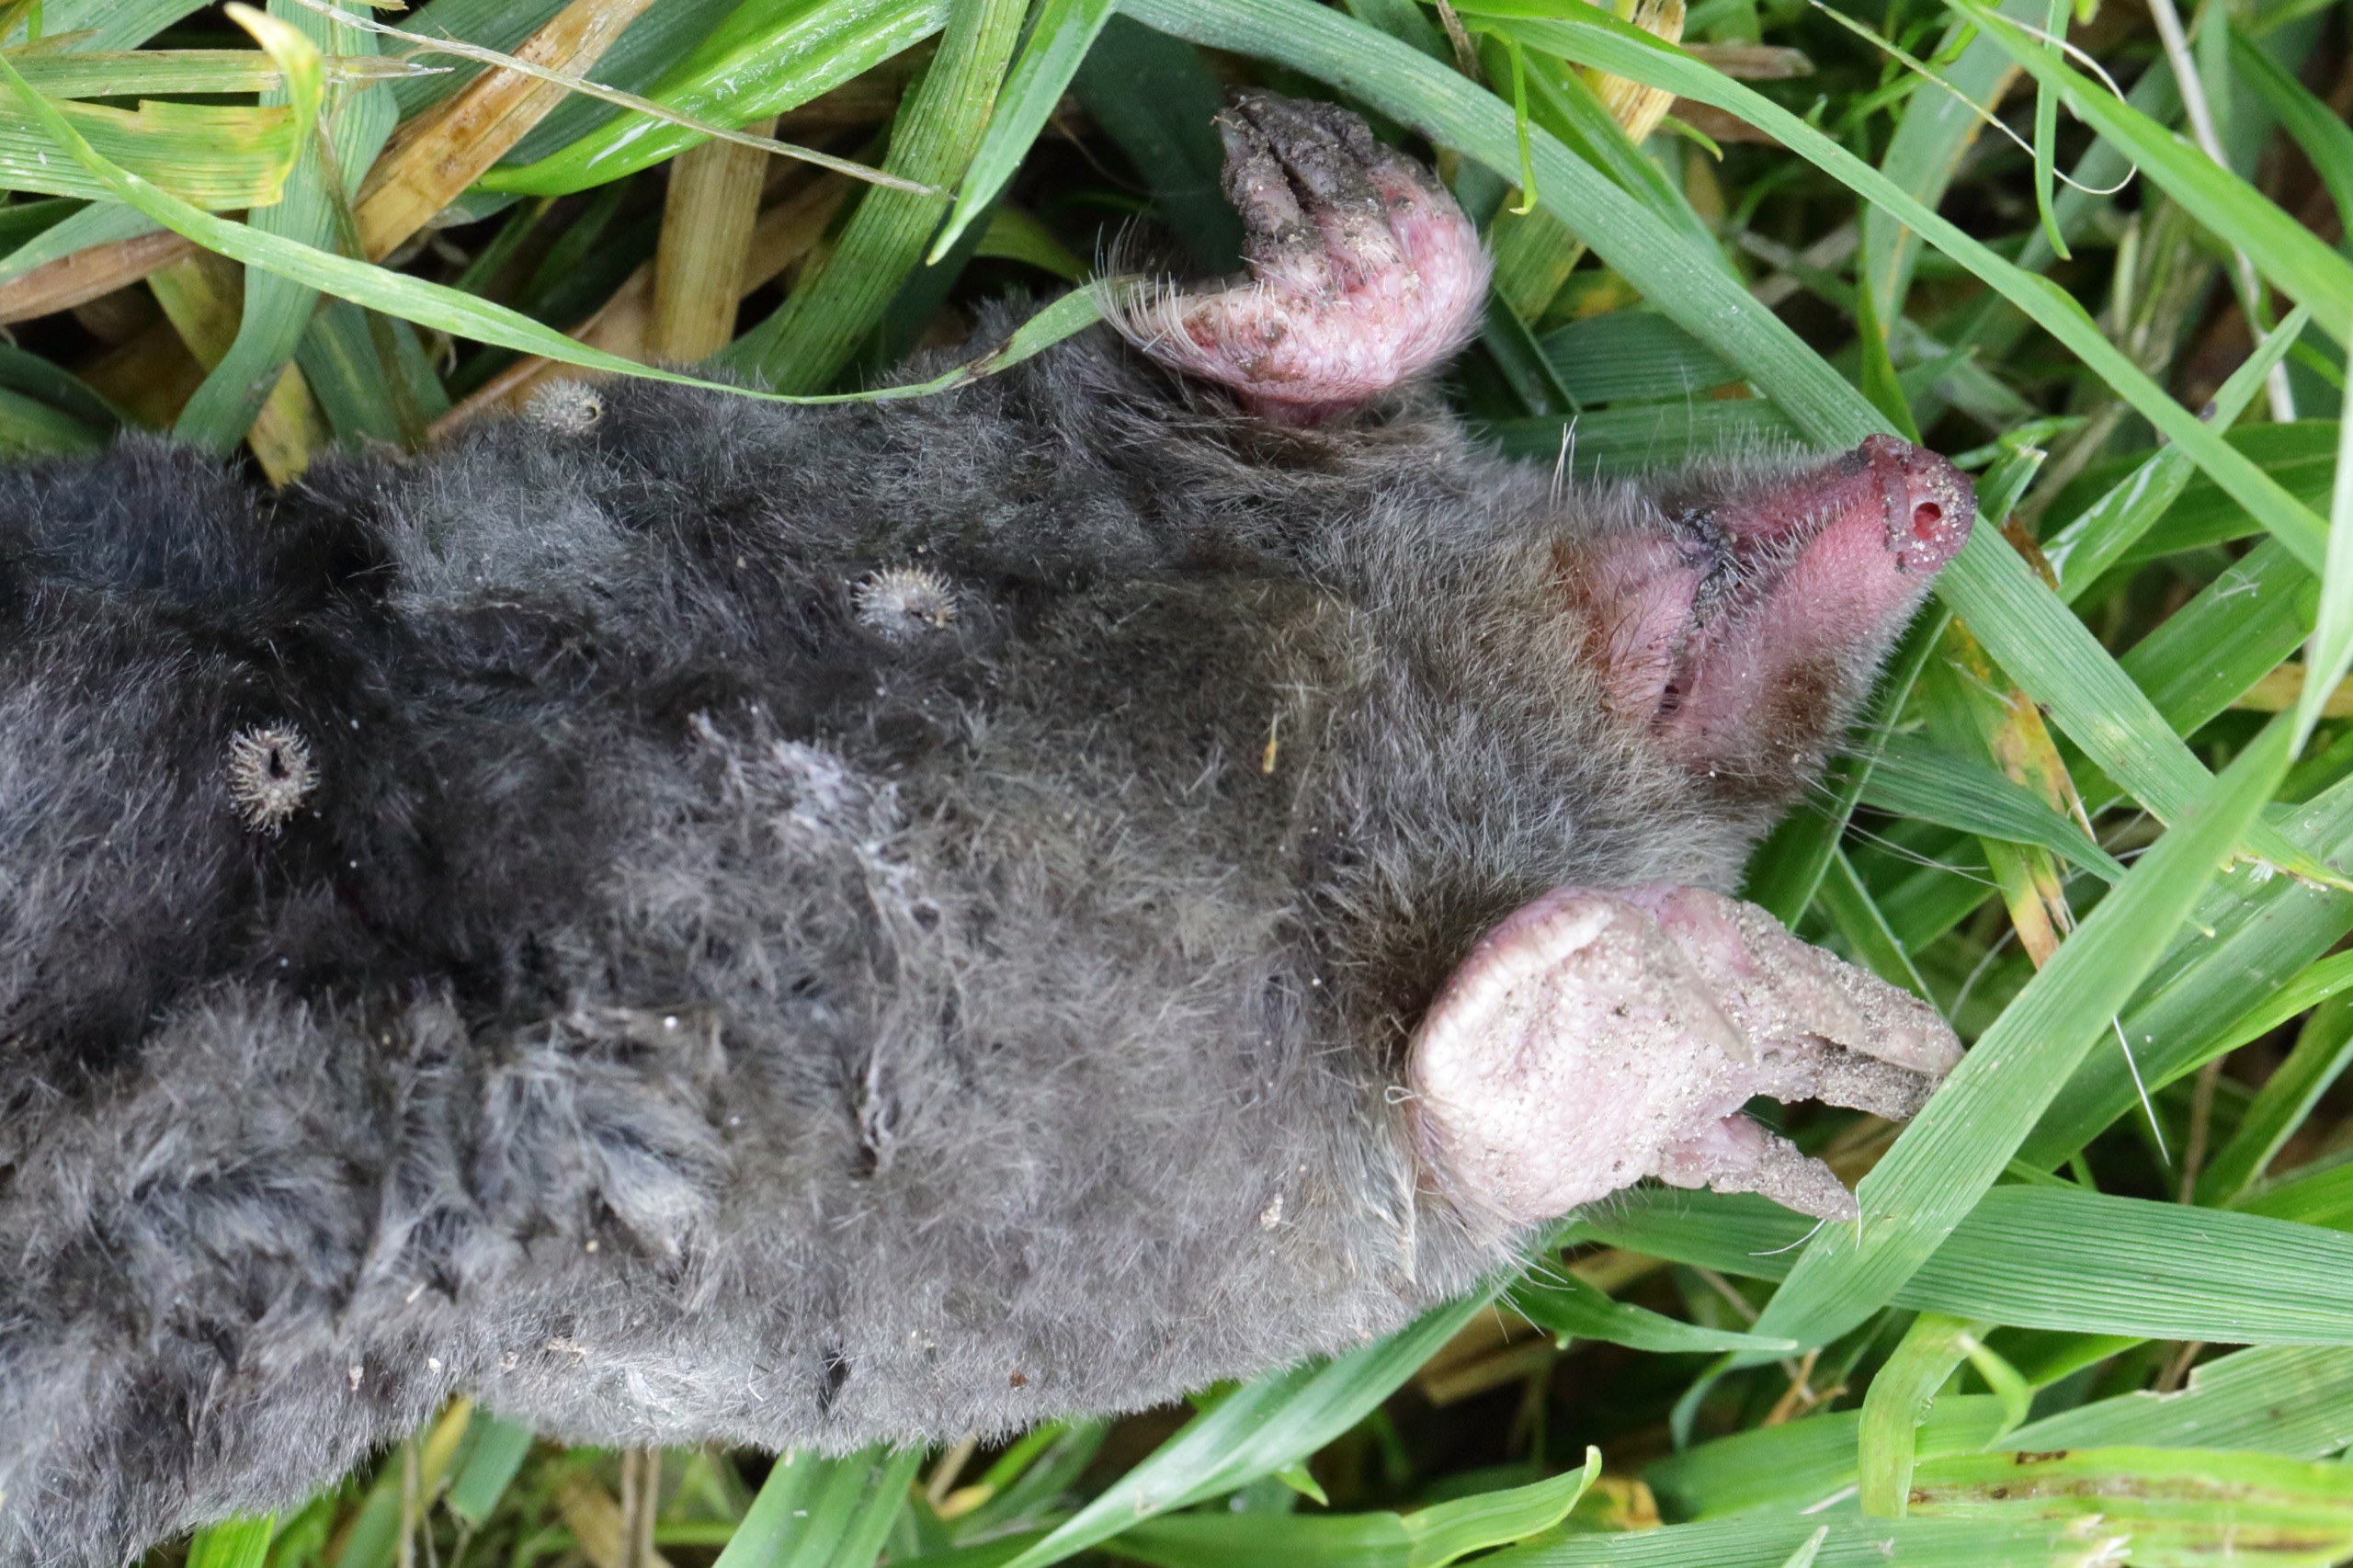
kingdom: Animalia
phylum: Chordata
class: Mammalia
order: Soricomorpha
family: Talpidae
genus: Talpa
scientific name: Talpa europaea
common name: Muldvarp
